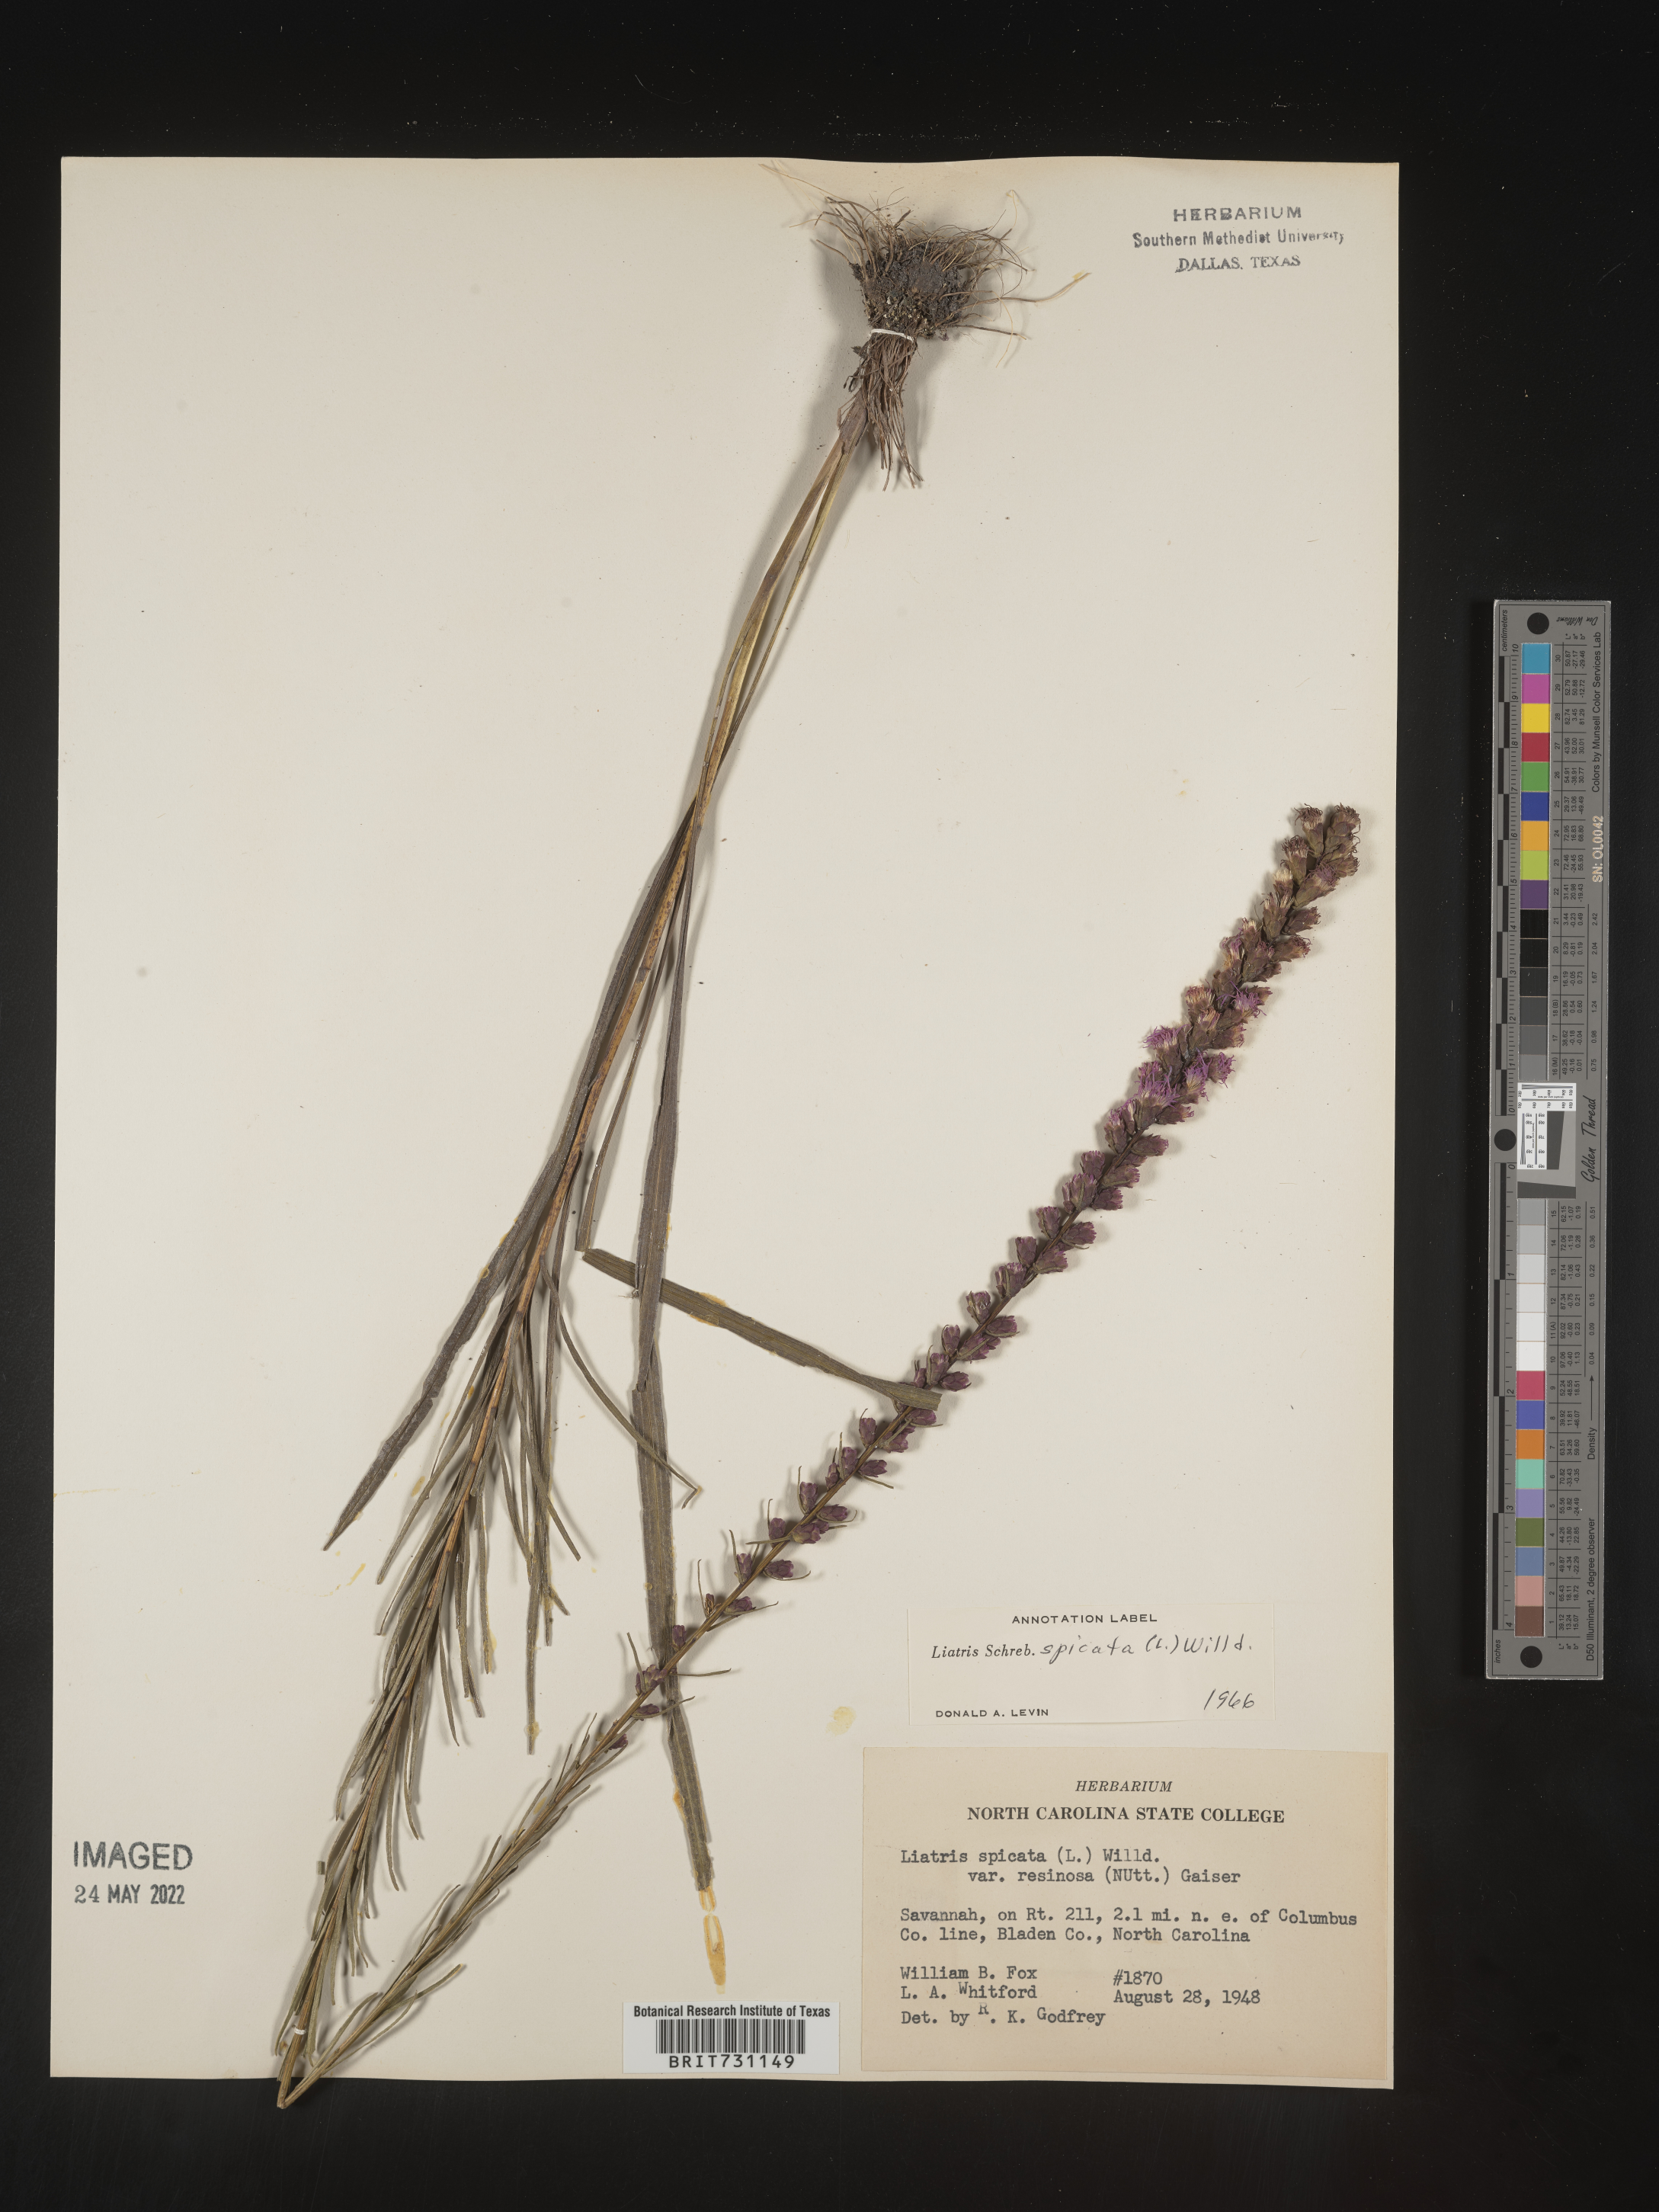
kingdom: Plantae
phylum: Tracheophyta
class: Magnoliopsida
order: Asterales
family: Asteraceae
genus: Liatris
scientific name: Liatris spicata
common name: Florist gayfeather
